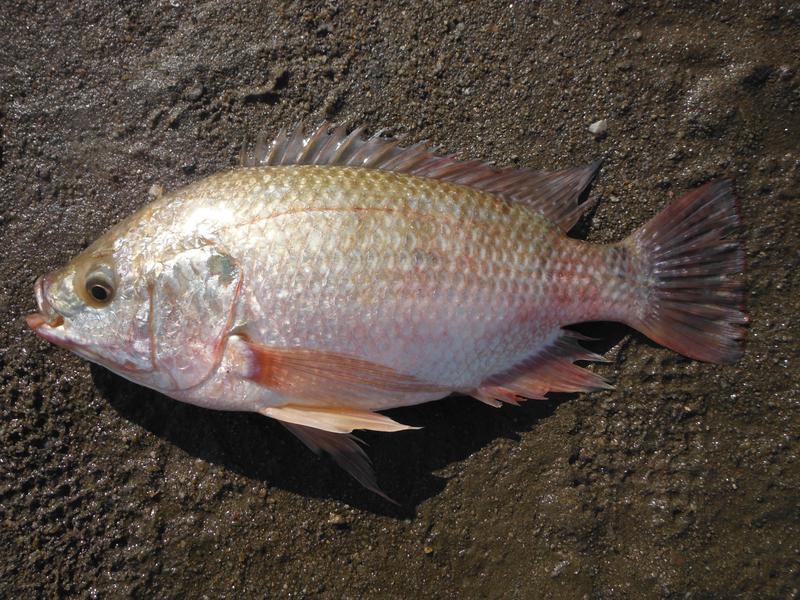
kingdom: Animalia
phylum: Chordata
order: Perciformes
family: Cichlidae
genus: Oreochromis
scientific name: Oreochromis esculentus
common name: Carp
